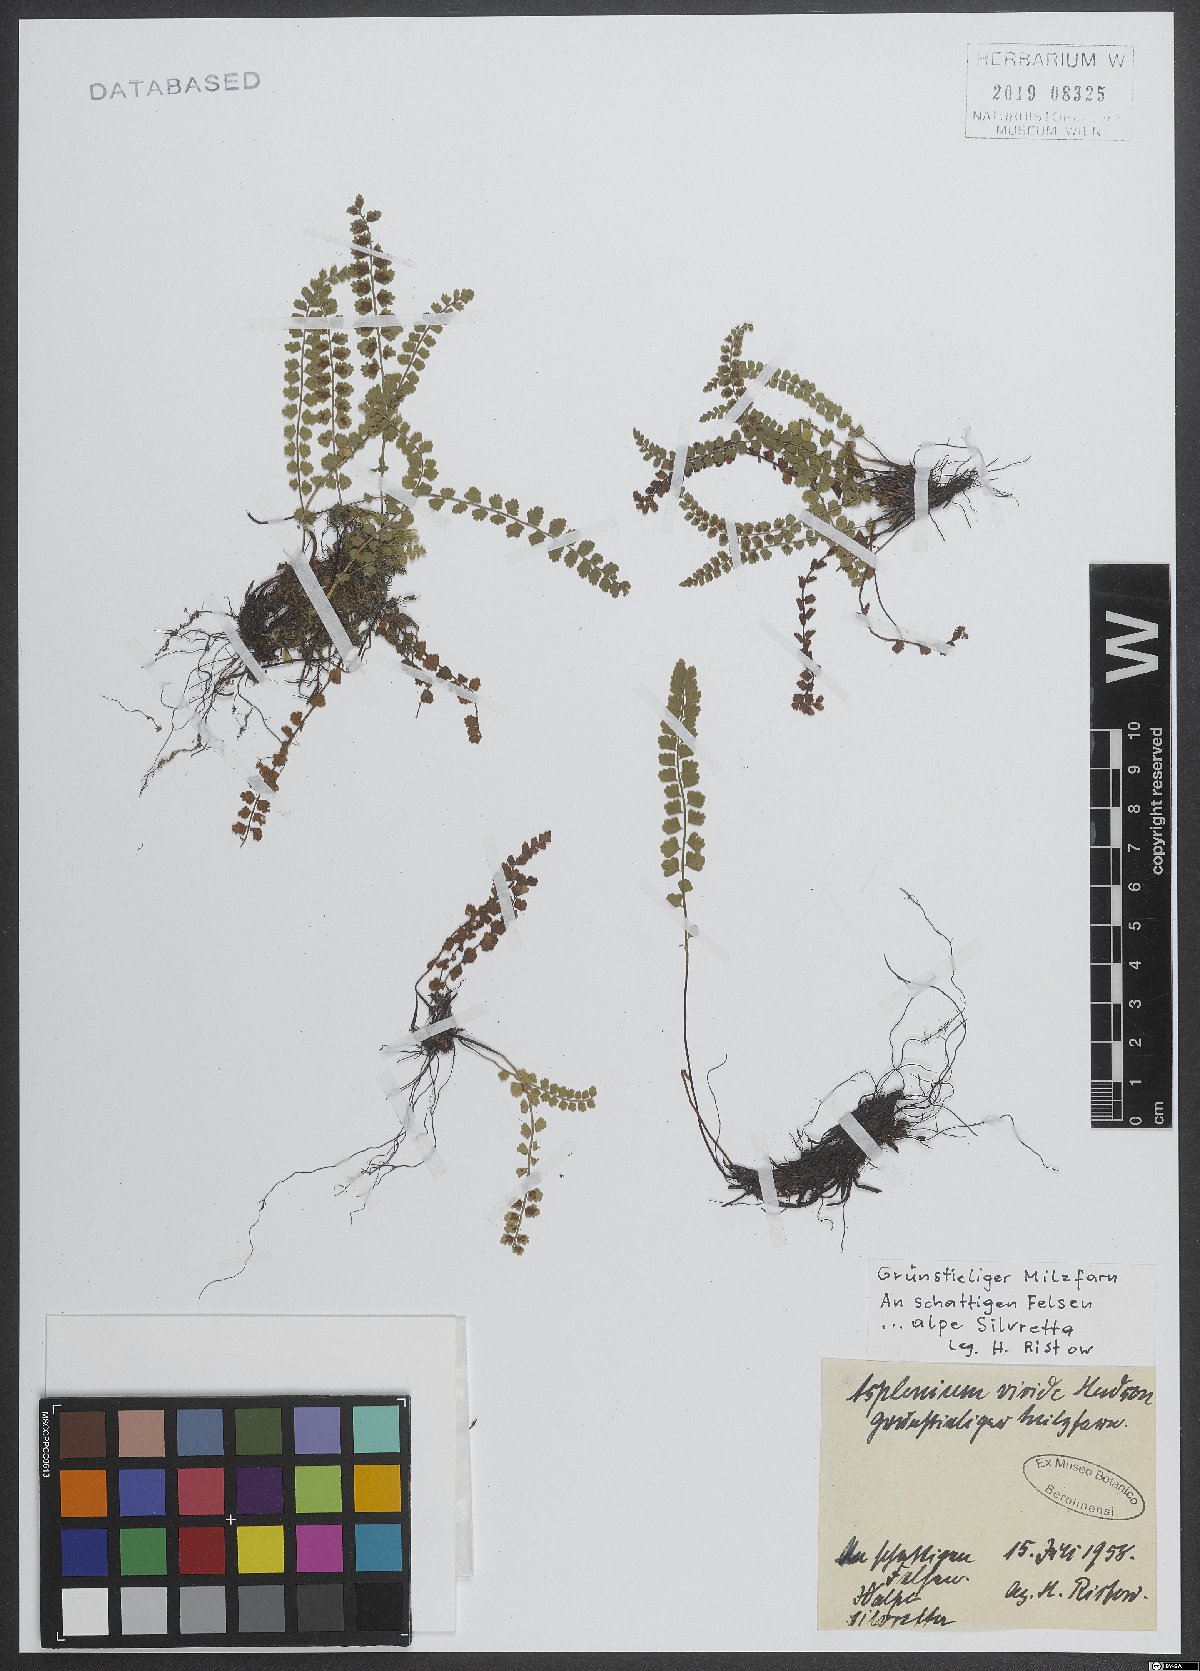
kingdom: Plantae
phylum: Tracheophyta
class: Polypodiopsida
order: Polypodiales
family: Aspleniaceae
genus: Asplenium
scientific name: Asplenium viride
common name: Green spleenwort
